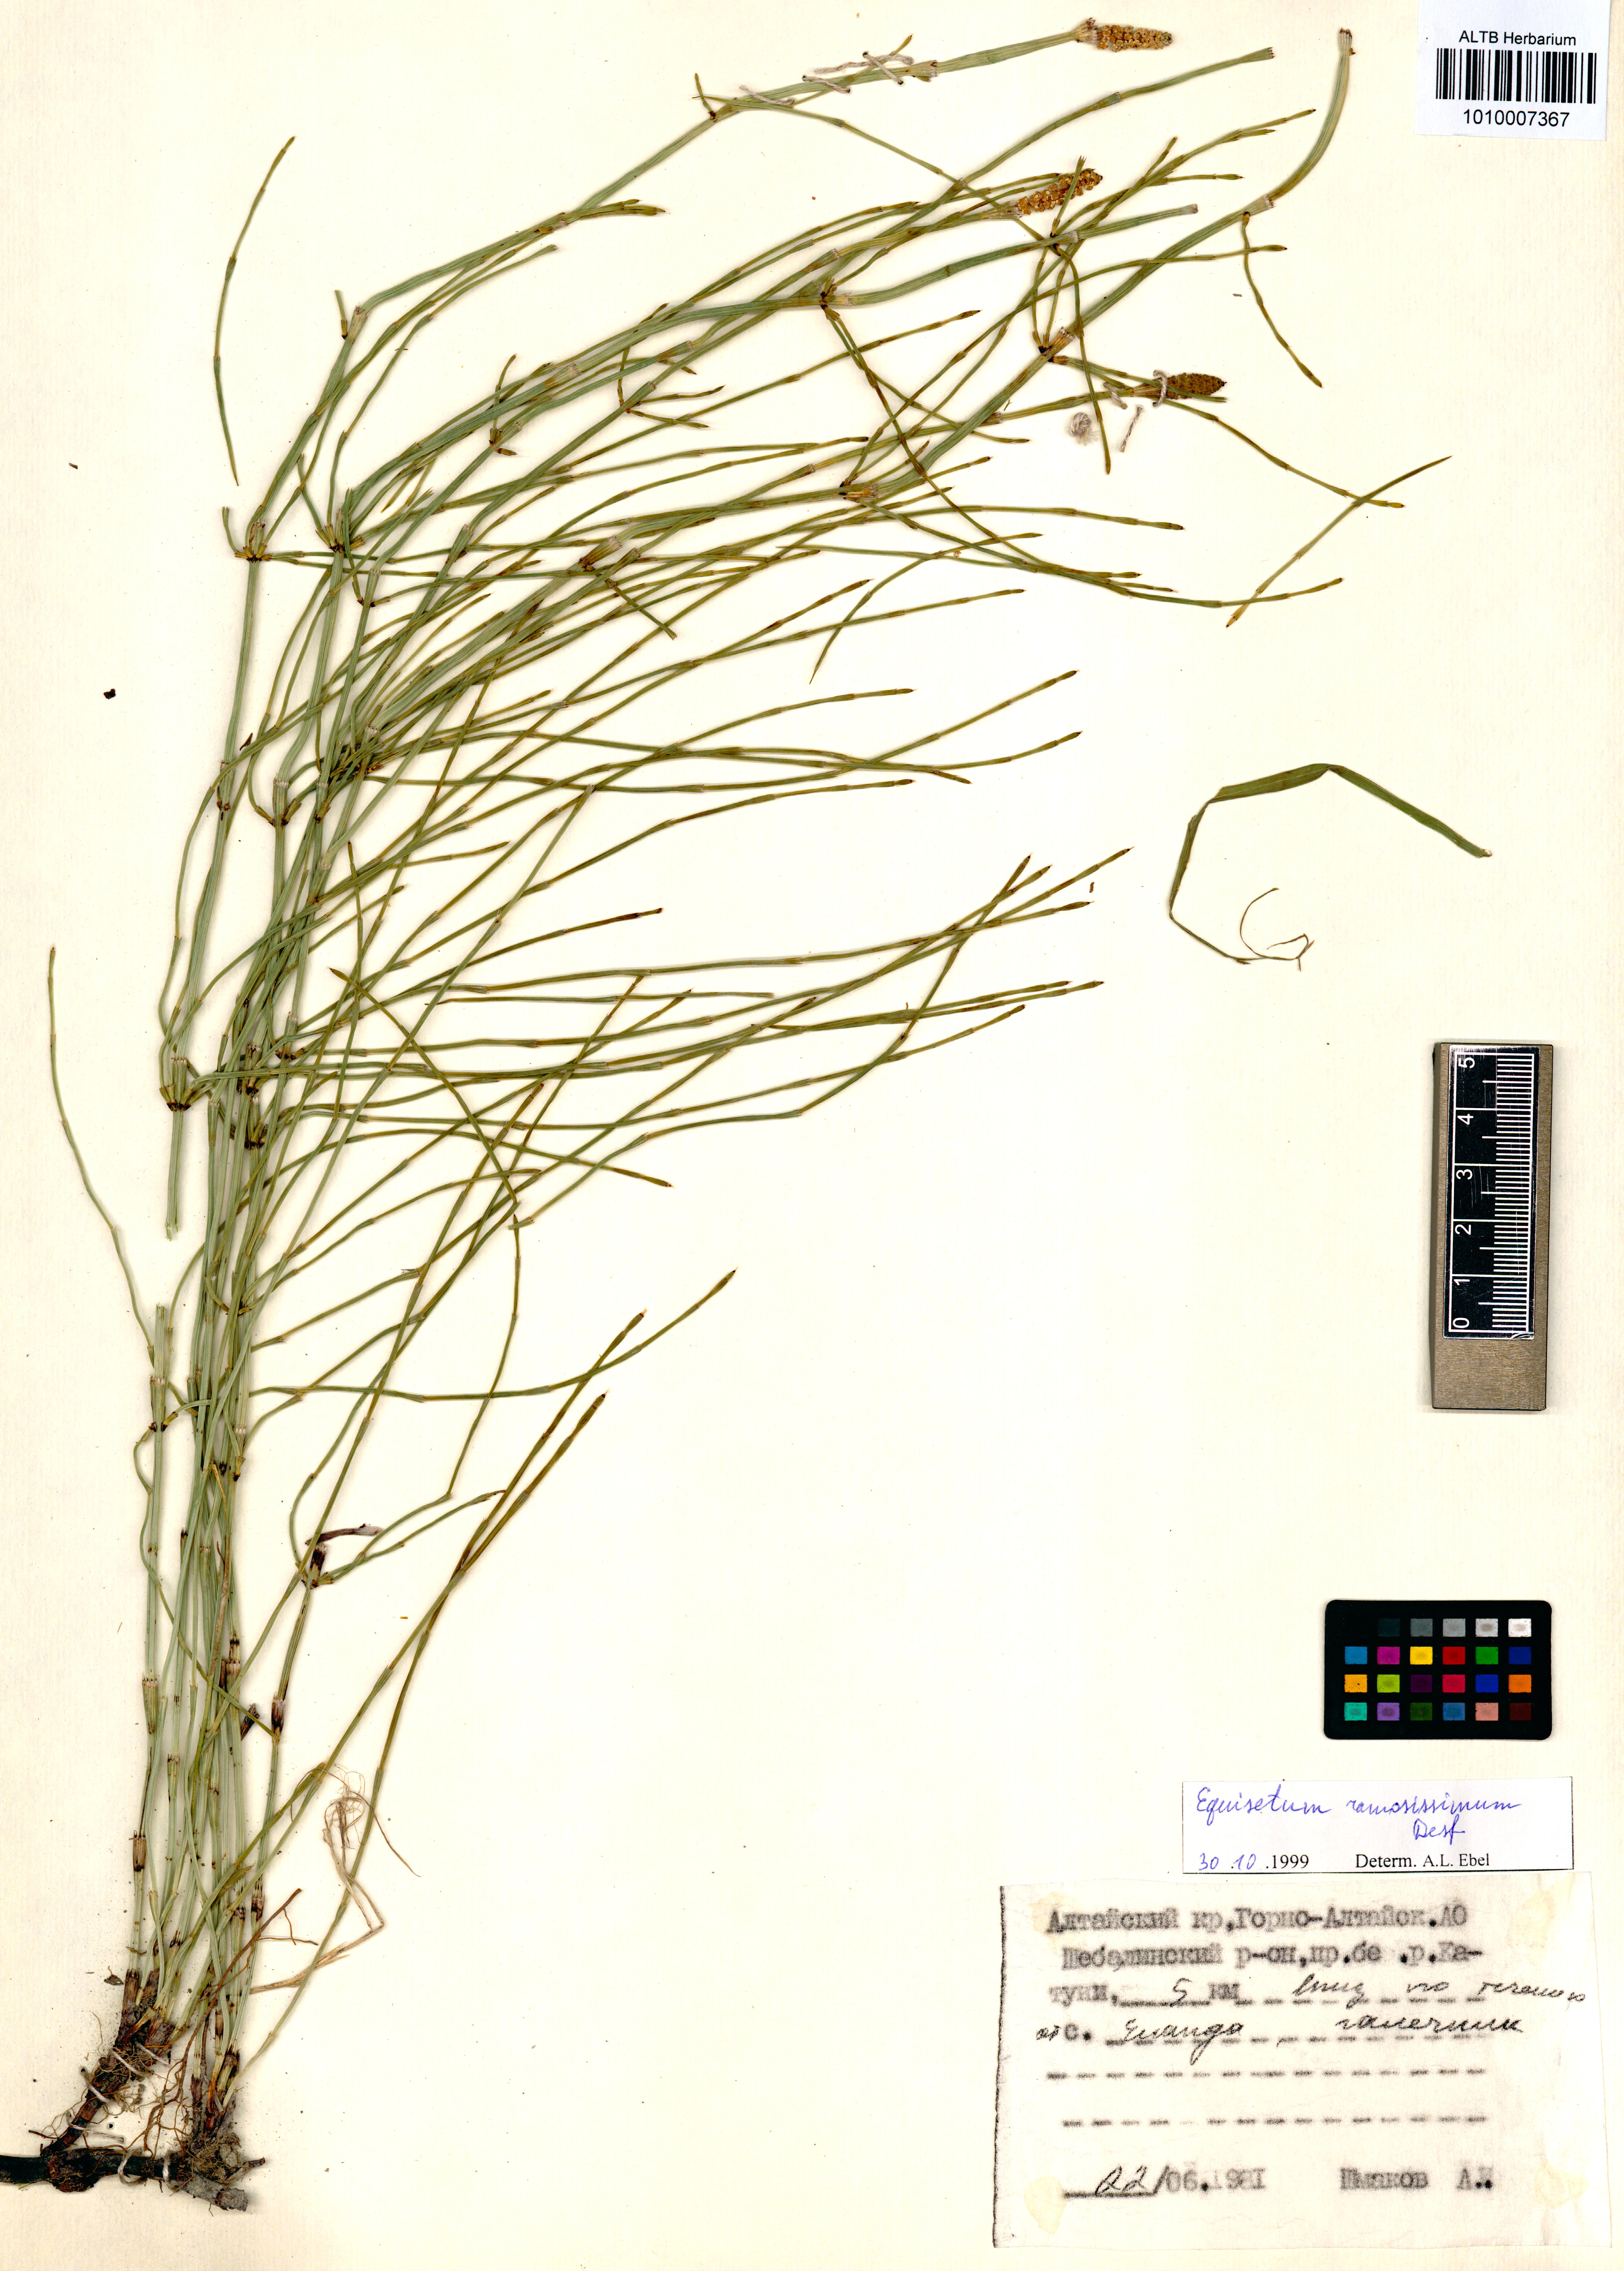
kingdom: Plantae
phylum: Tracheophyta
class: Polypodiopsida
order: Equisetales
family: Equisetaceae
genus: Equisetum
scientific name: Equisetum ramosissimum
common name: Branched horsetail
